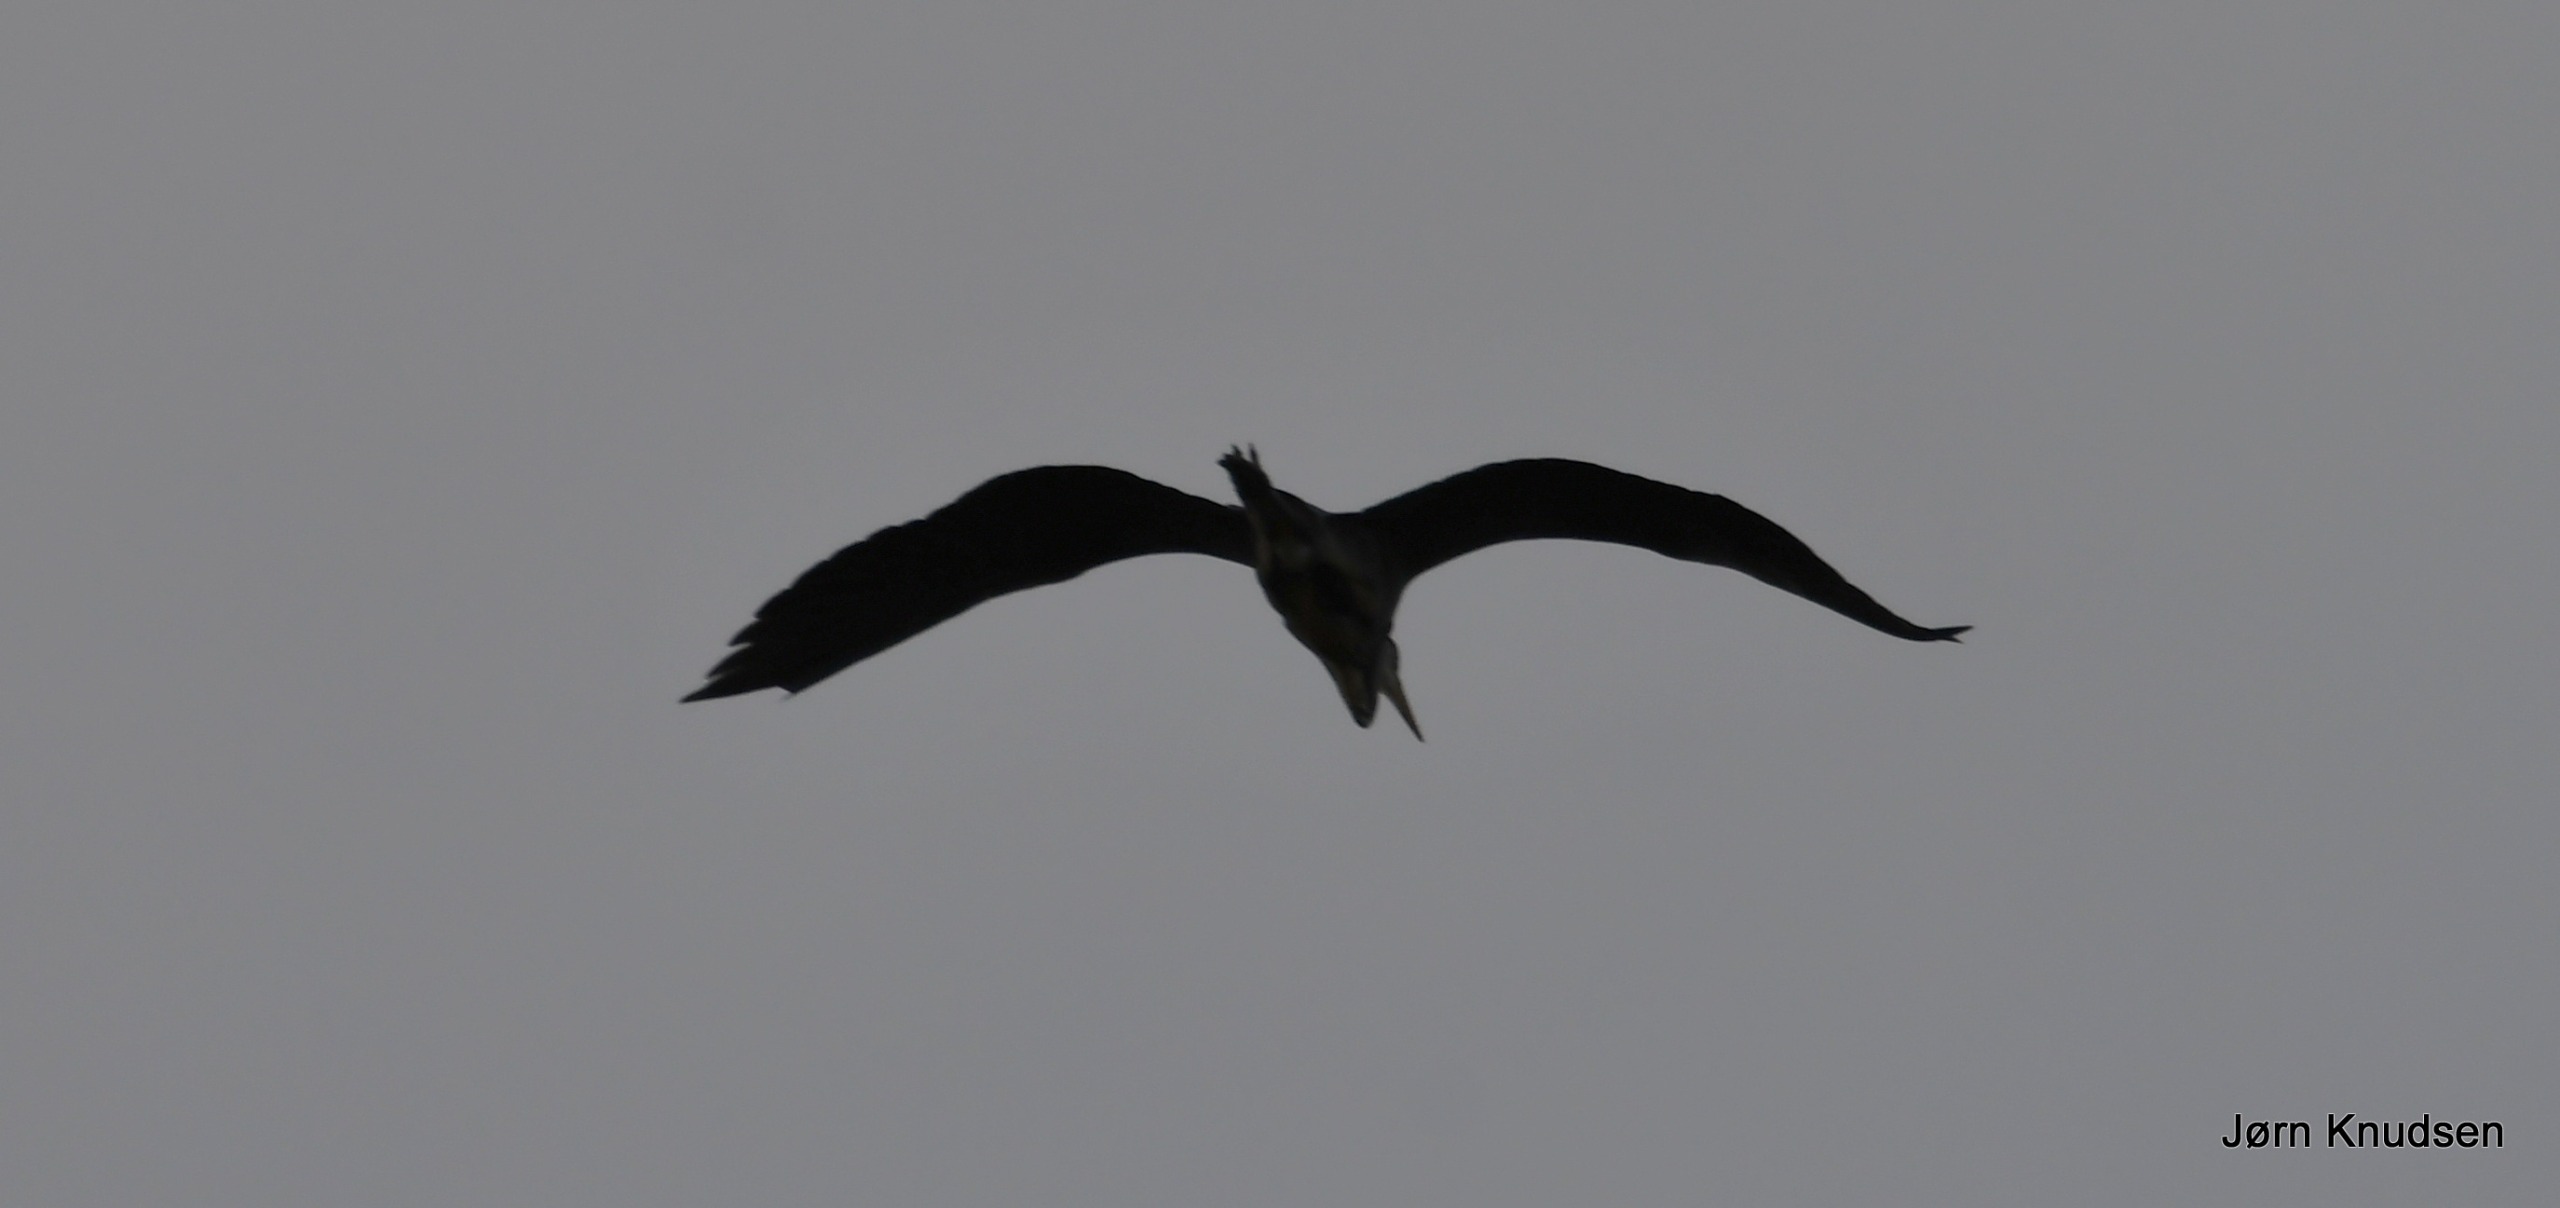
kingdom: Animalia
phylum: Chordata
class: Aves
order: Pelecaniformes
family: Ardeidae
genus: Ardea
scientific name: Ardea cinerea
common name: Fiskehejre
